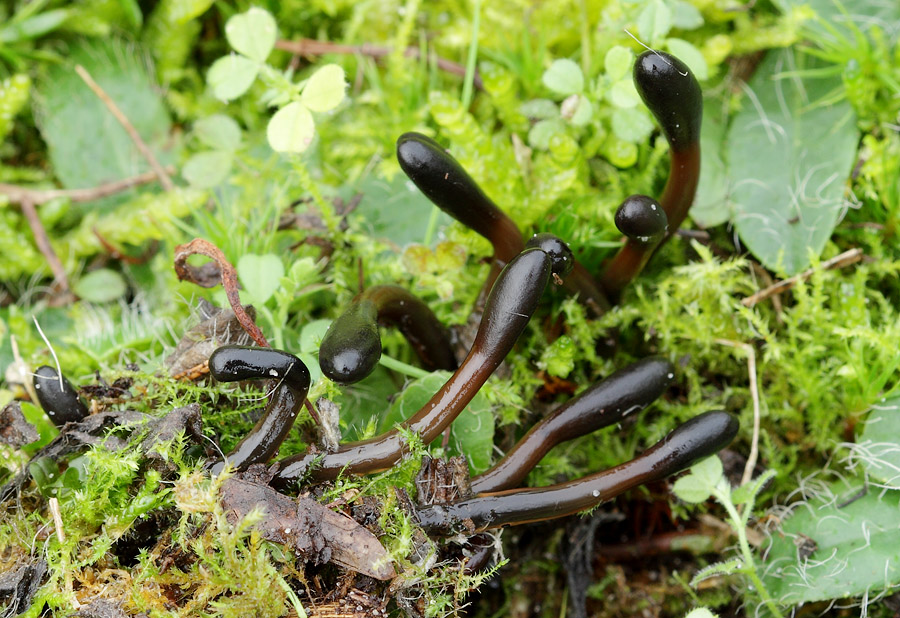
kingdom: Fungi
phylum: Ascomycota
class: Geoglossomycetes
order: Geoglossales
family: Geoglossaceae
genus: Glutinoglossum
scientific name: Glutinoglossum glutinosum
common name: slimet jordtunge
